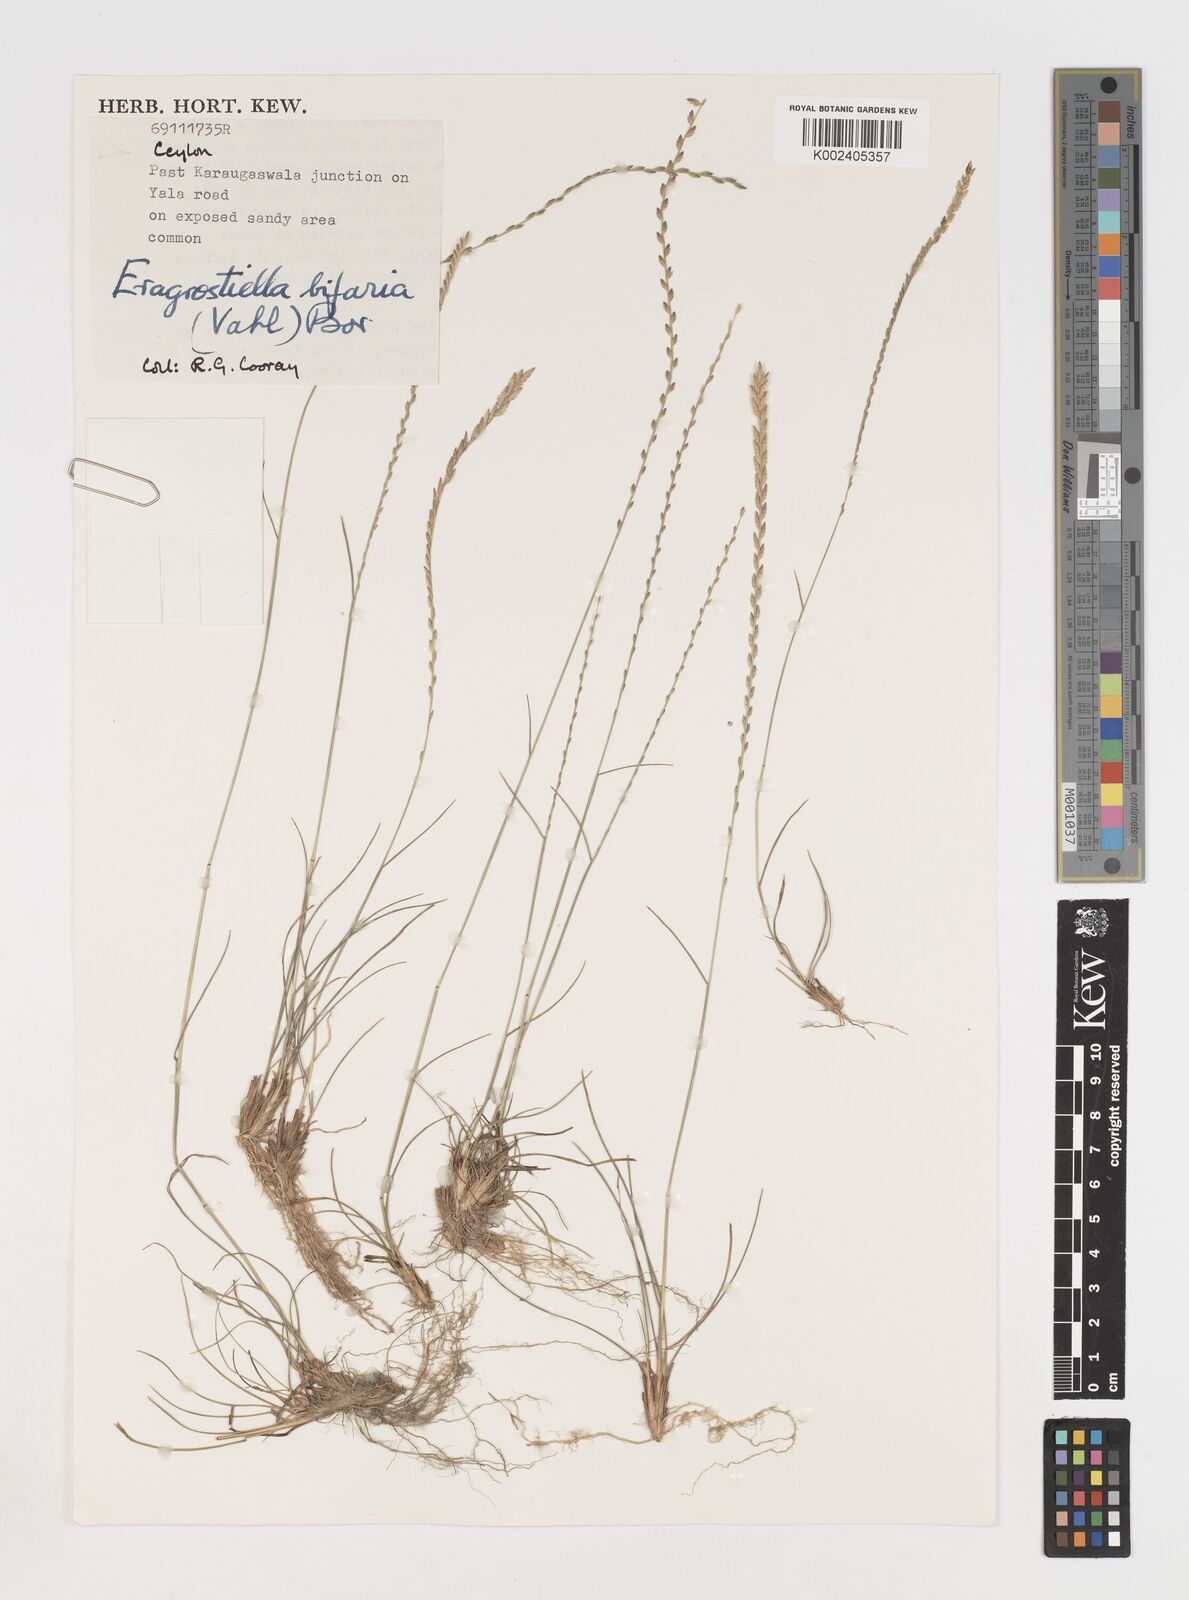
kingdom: Plantae
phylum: Tracheophyta
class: Liliopsida
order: Poales
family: Poaceae
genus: Eragrostiella
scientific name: Eragrostiella bifaria
